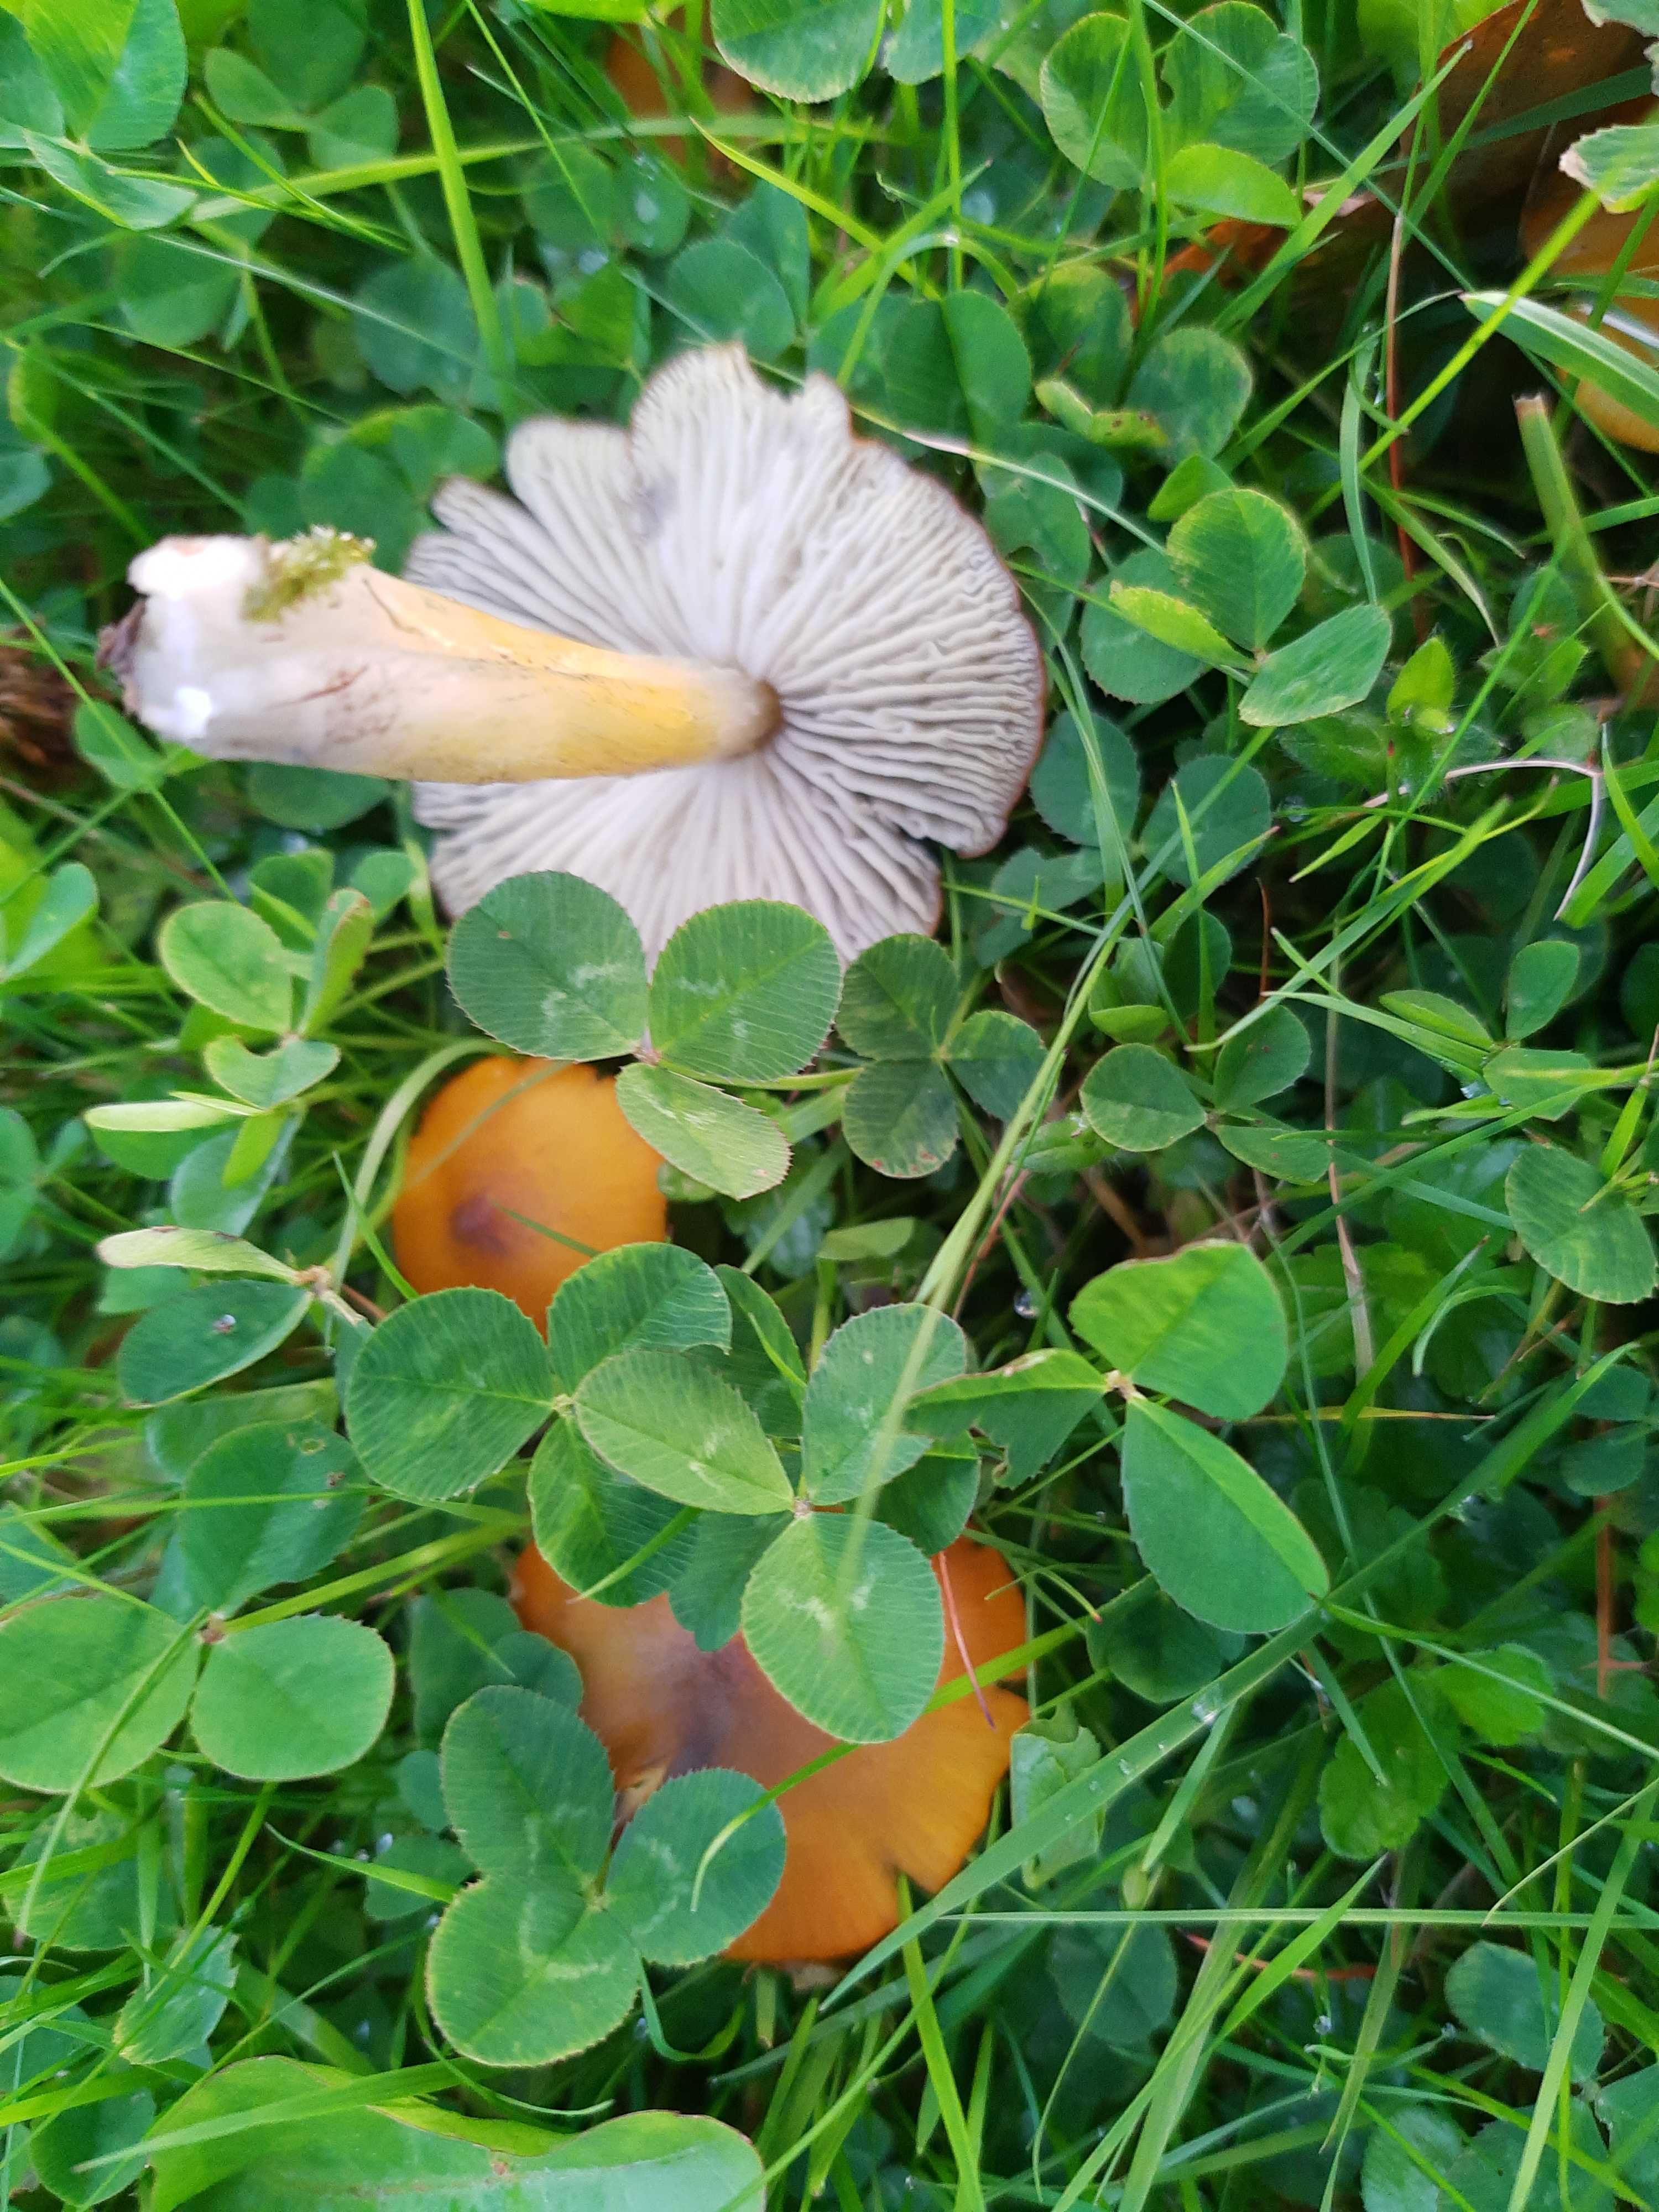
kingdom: Fungi
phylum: Basidiomycota
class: Agaricomycetes
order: Agaricales
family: Hygrophoraceae
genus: Hygrocybe
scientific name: Hygrocybe conica
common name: kegle-vokshat
